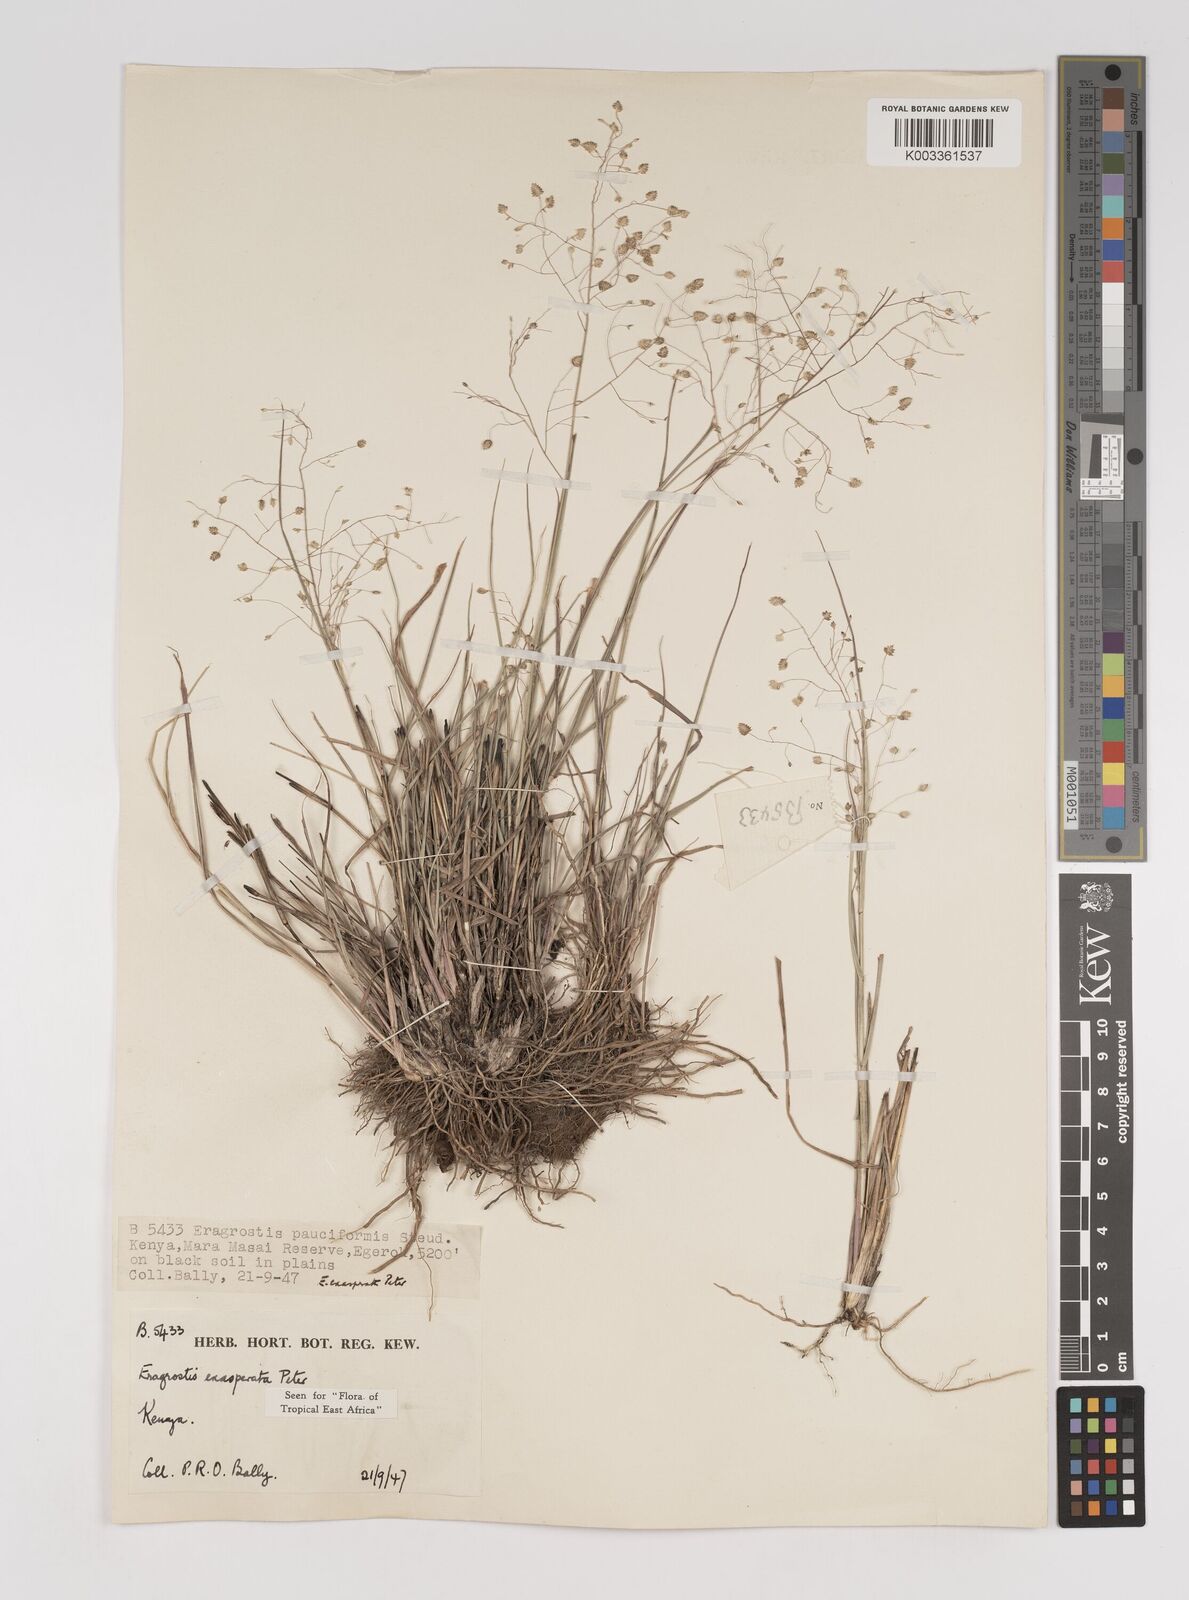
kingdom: Plantae
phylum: Tracheophyta
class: Liliopsida
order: Poales
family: Poaceae
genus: Eragrostis
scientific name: Eragrostis exasperata
